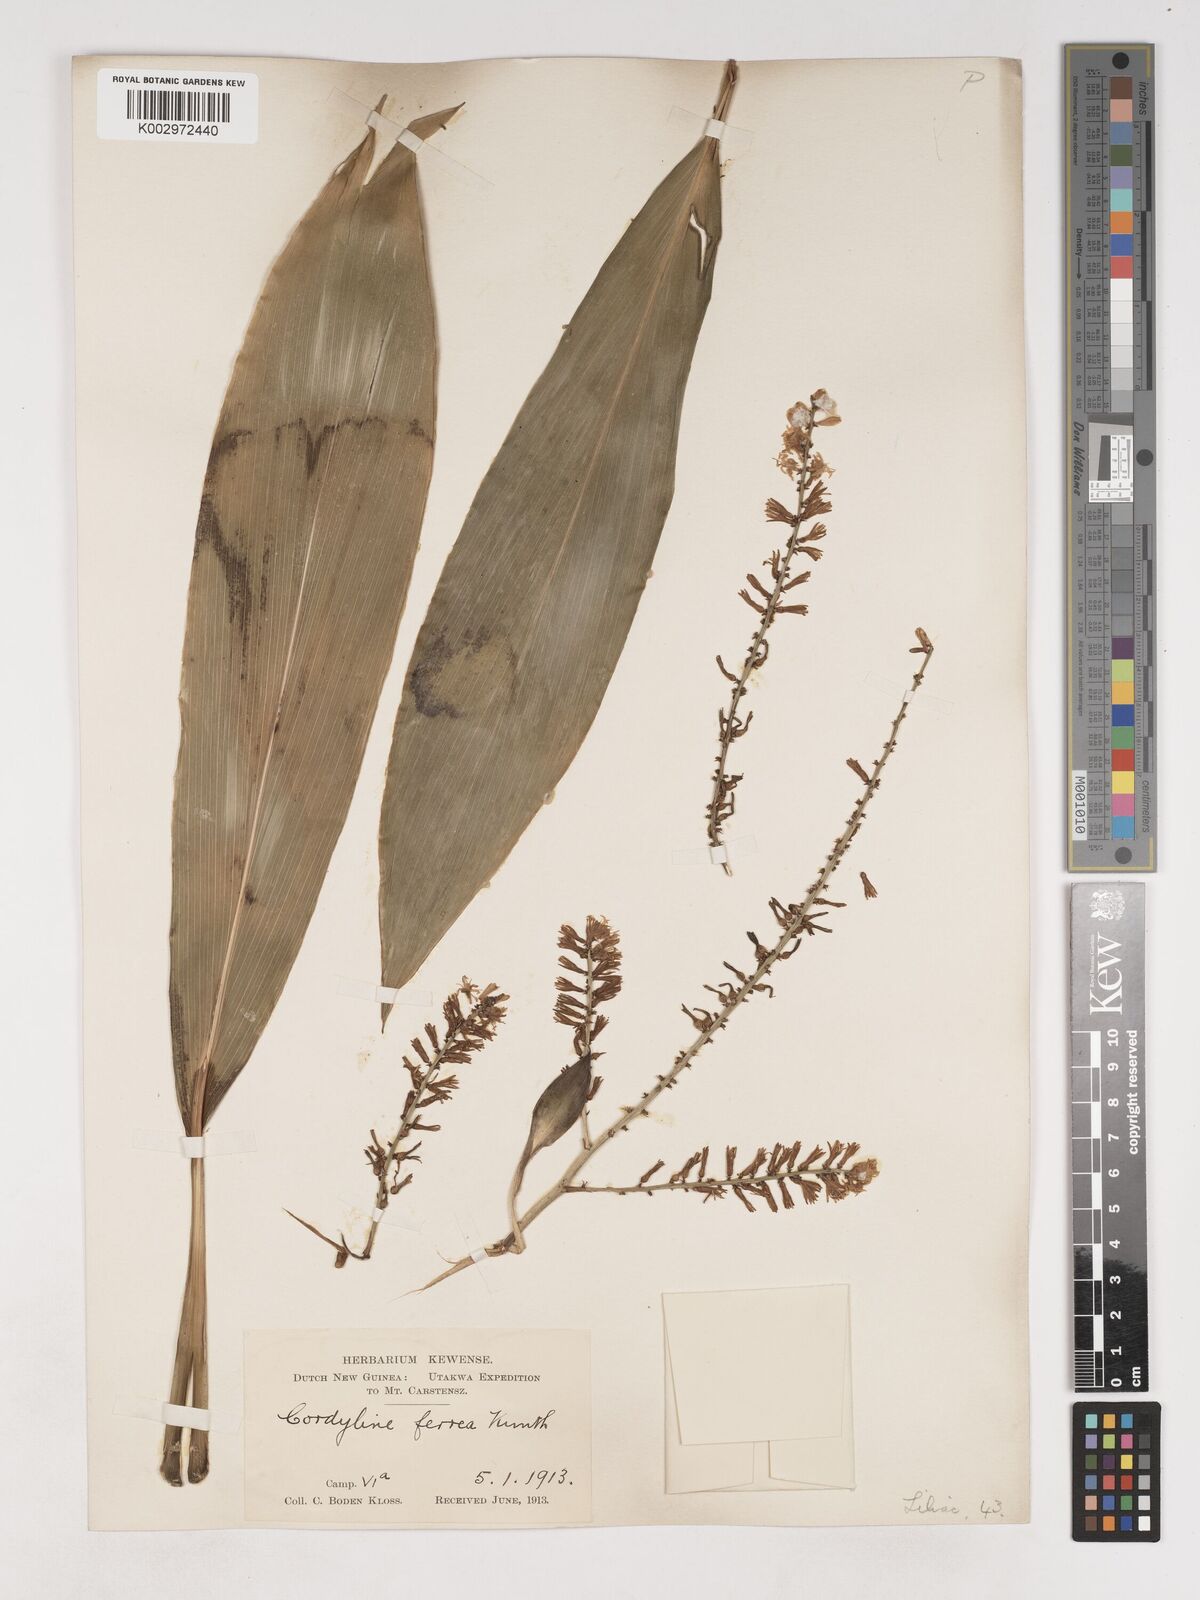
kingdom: Plantae
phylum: Tracheophyta
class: Liliopsida
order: Asparagales
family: Asparagaceae
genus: Cordyline
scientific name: Cordyline
